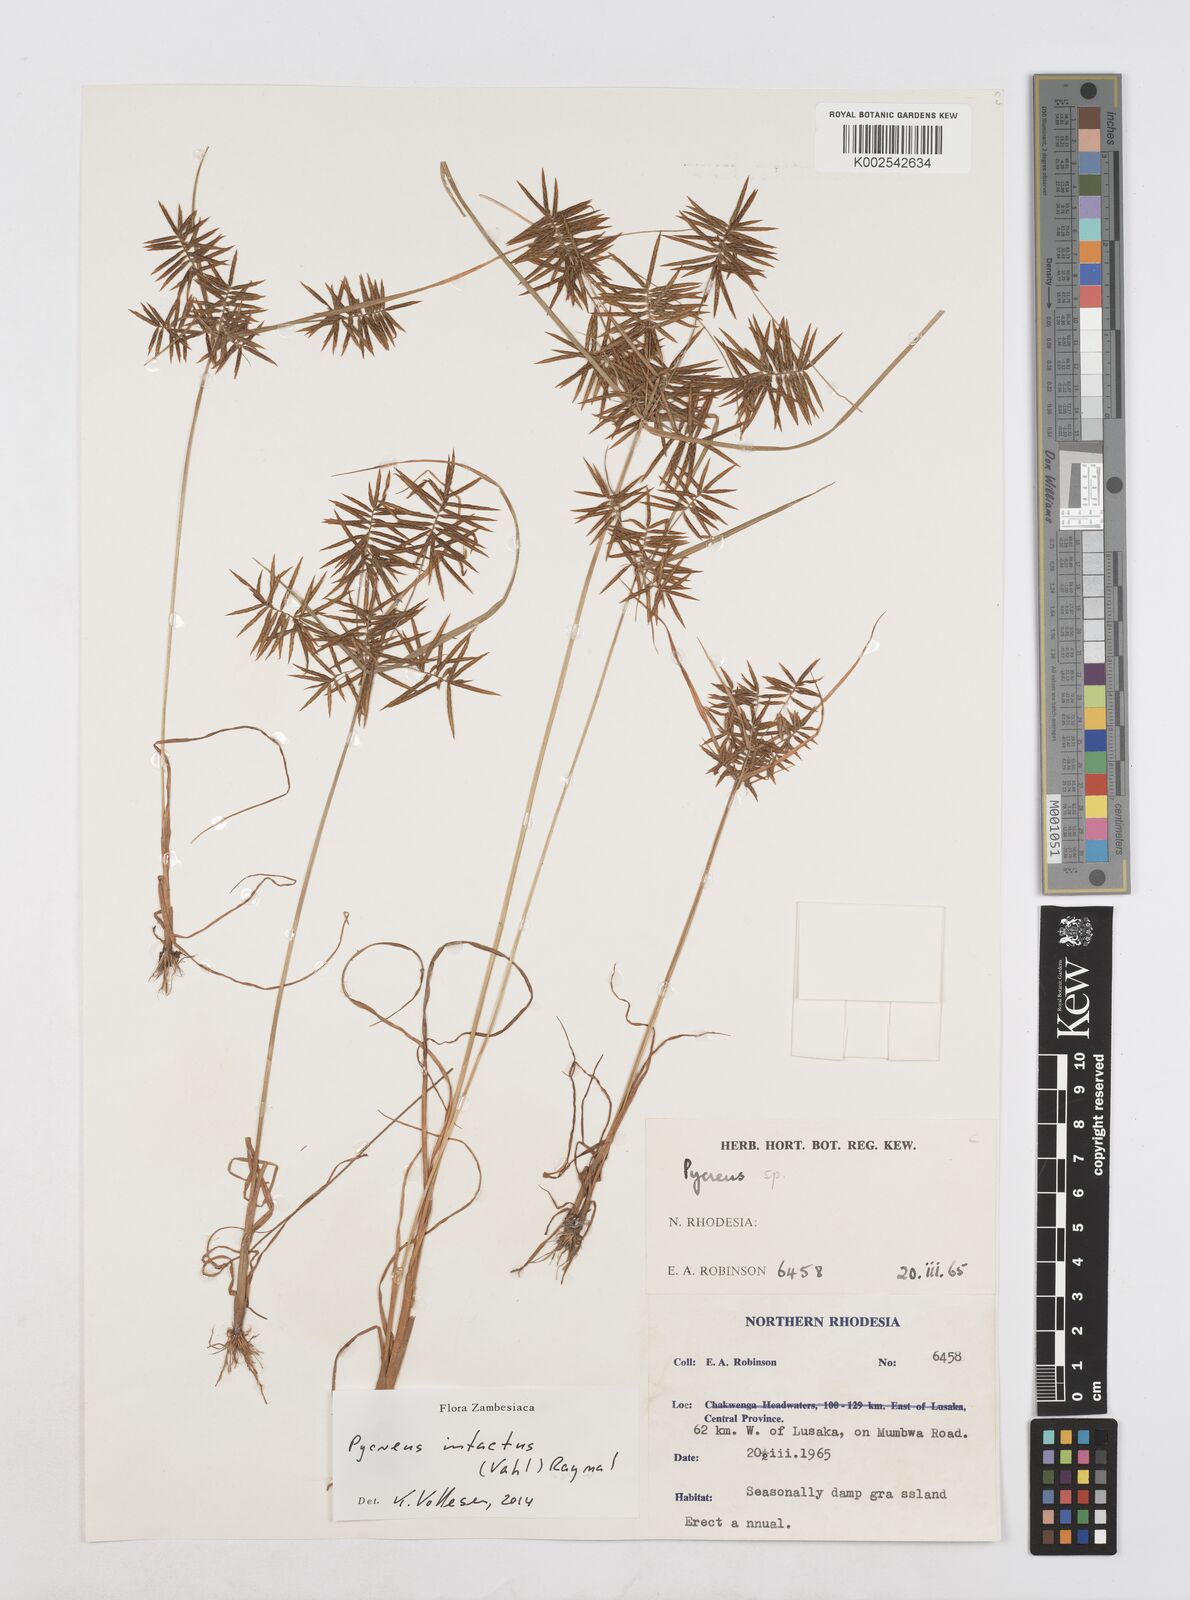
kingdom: Plantae
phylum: Tracheophyta
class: Liliopsida
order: Poales
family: Cyperaceae
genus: Cyperus
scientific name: Cyperus intactus
